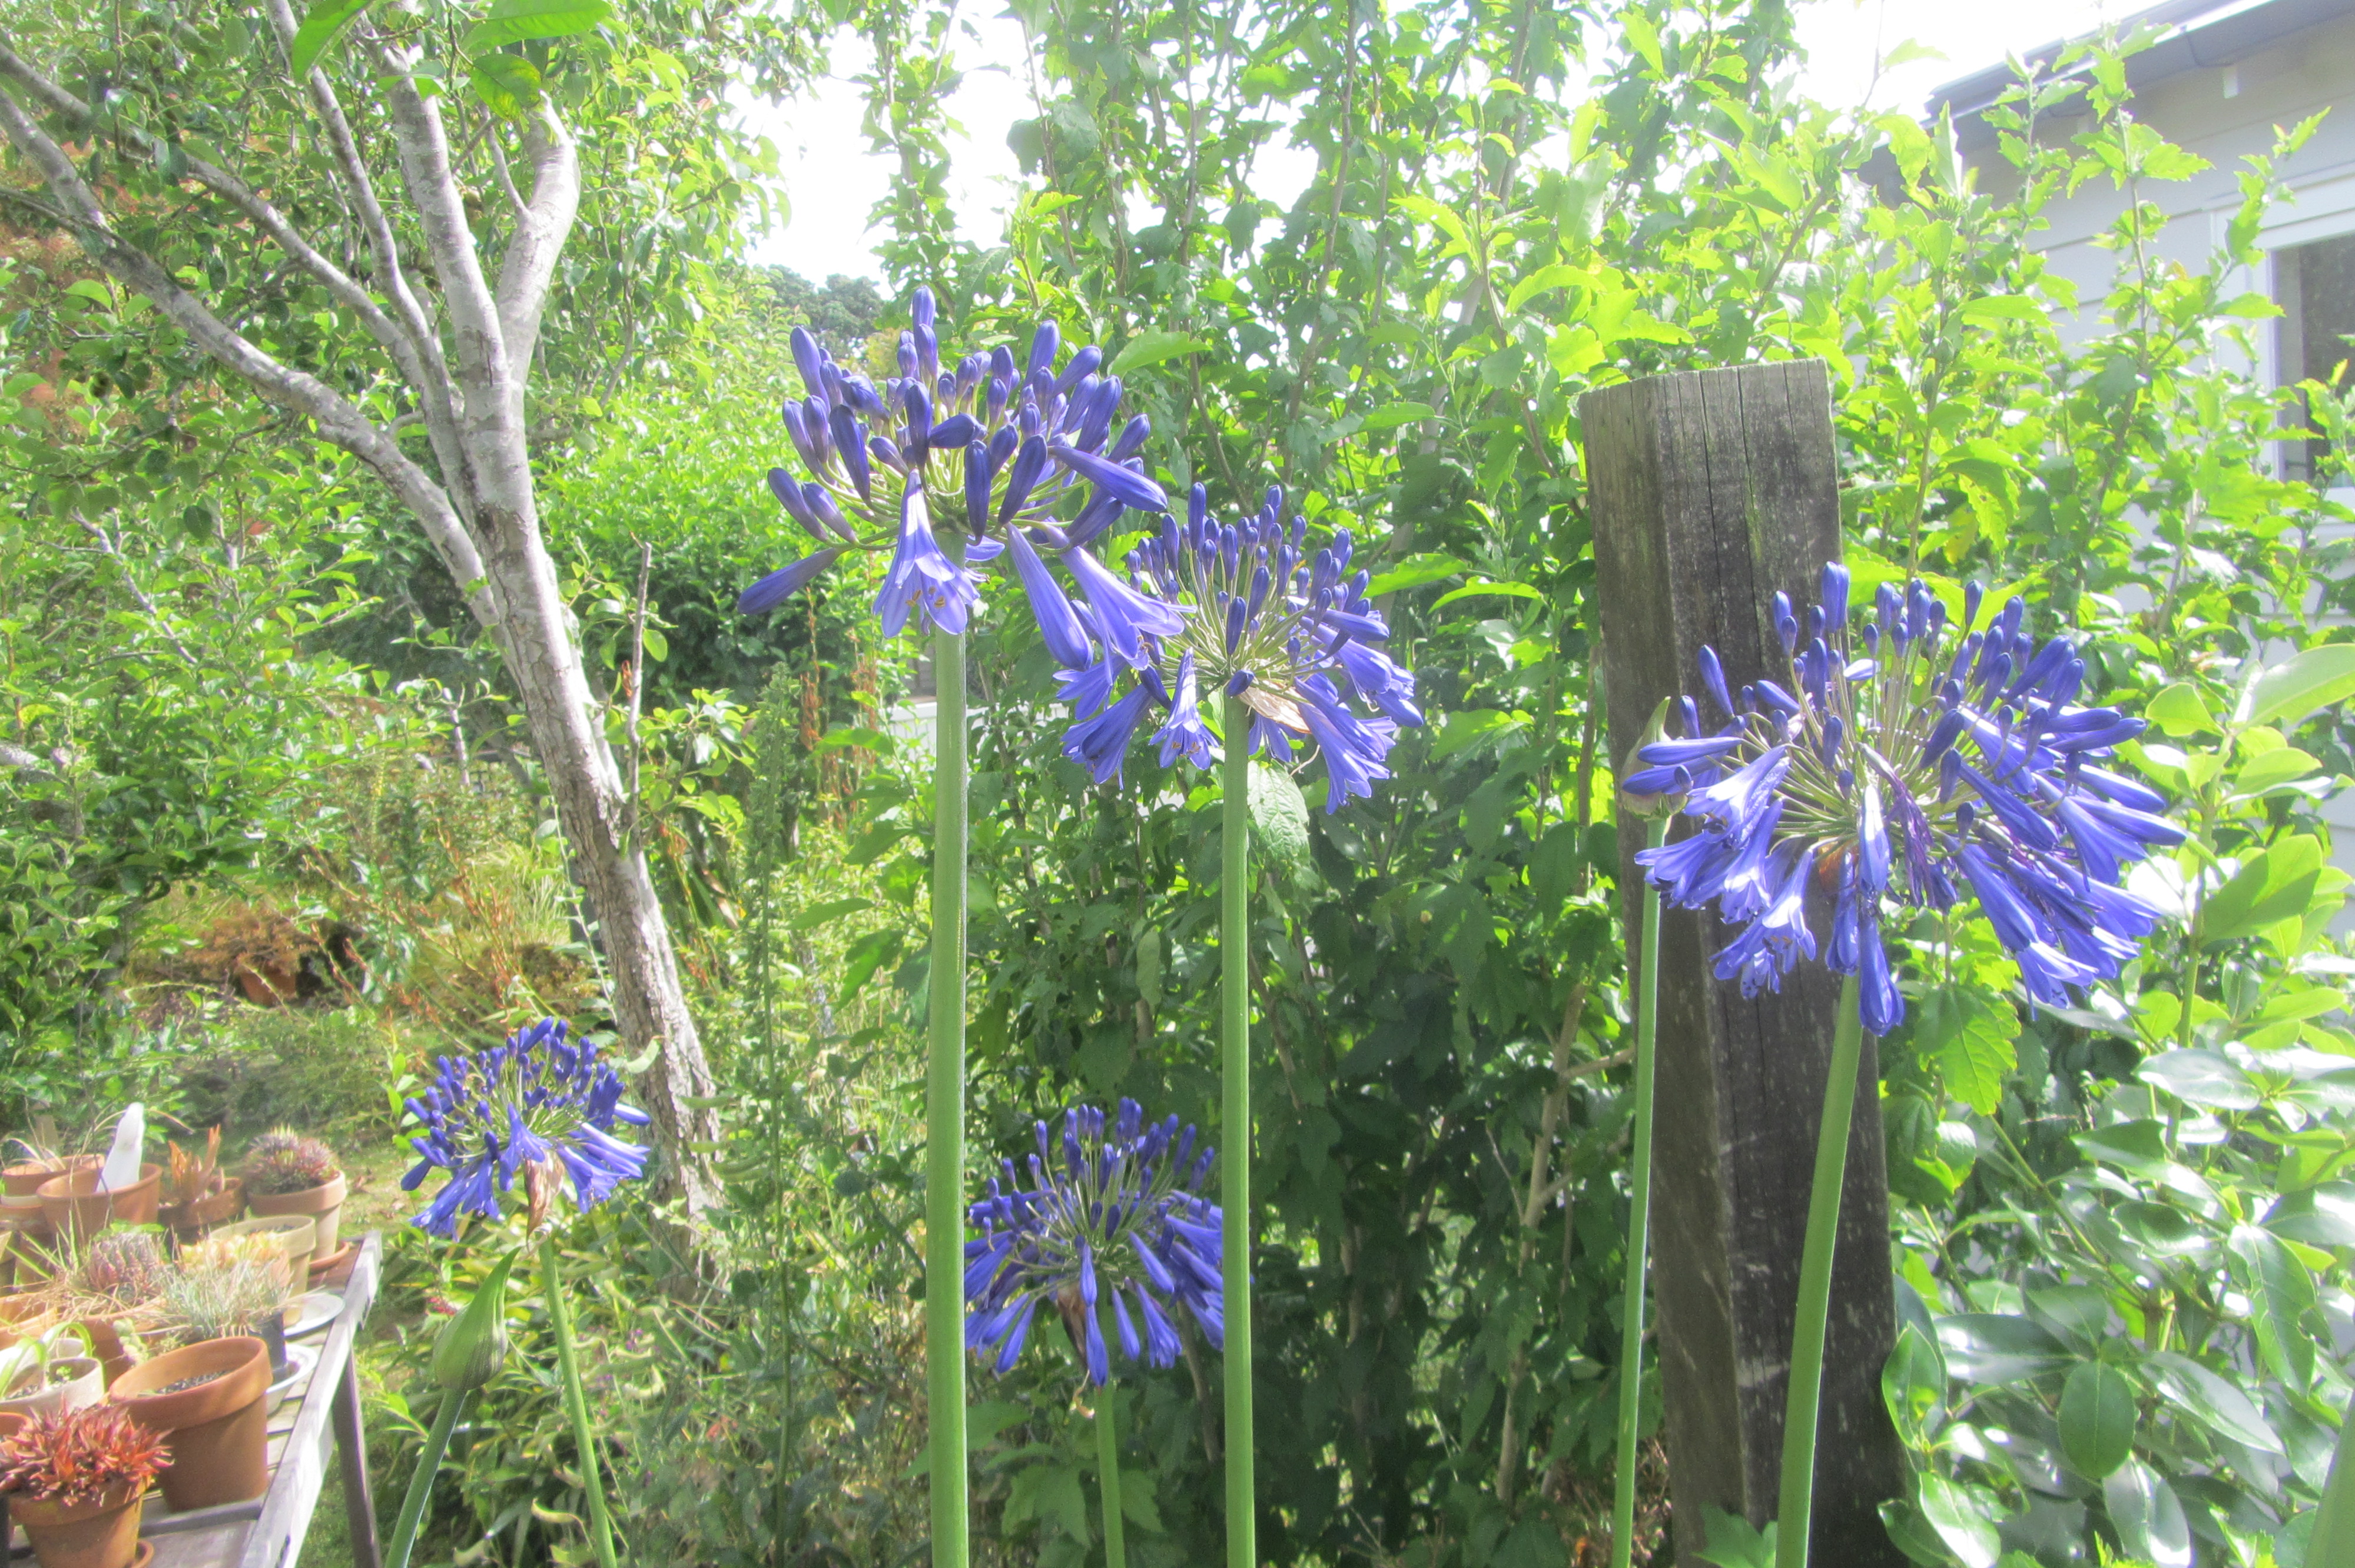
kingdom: Plantae
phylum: Tracheophyta
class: Liliopsida
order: Asparagales
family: Amaryllidaceae
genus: Agapanthus
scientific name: Agapanthus inapertus
